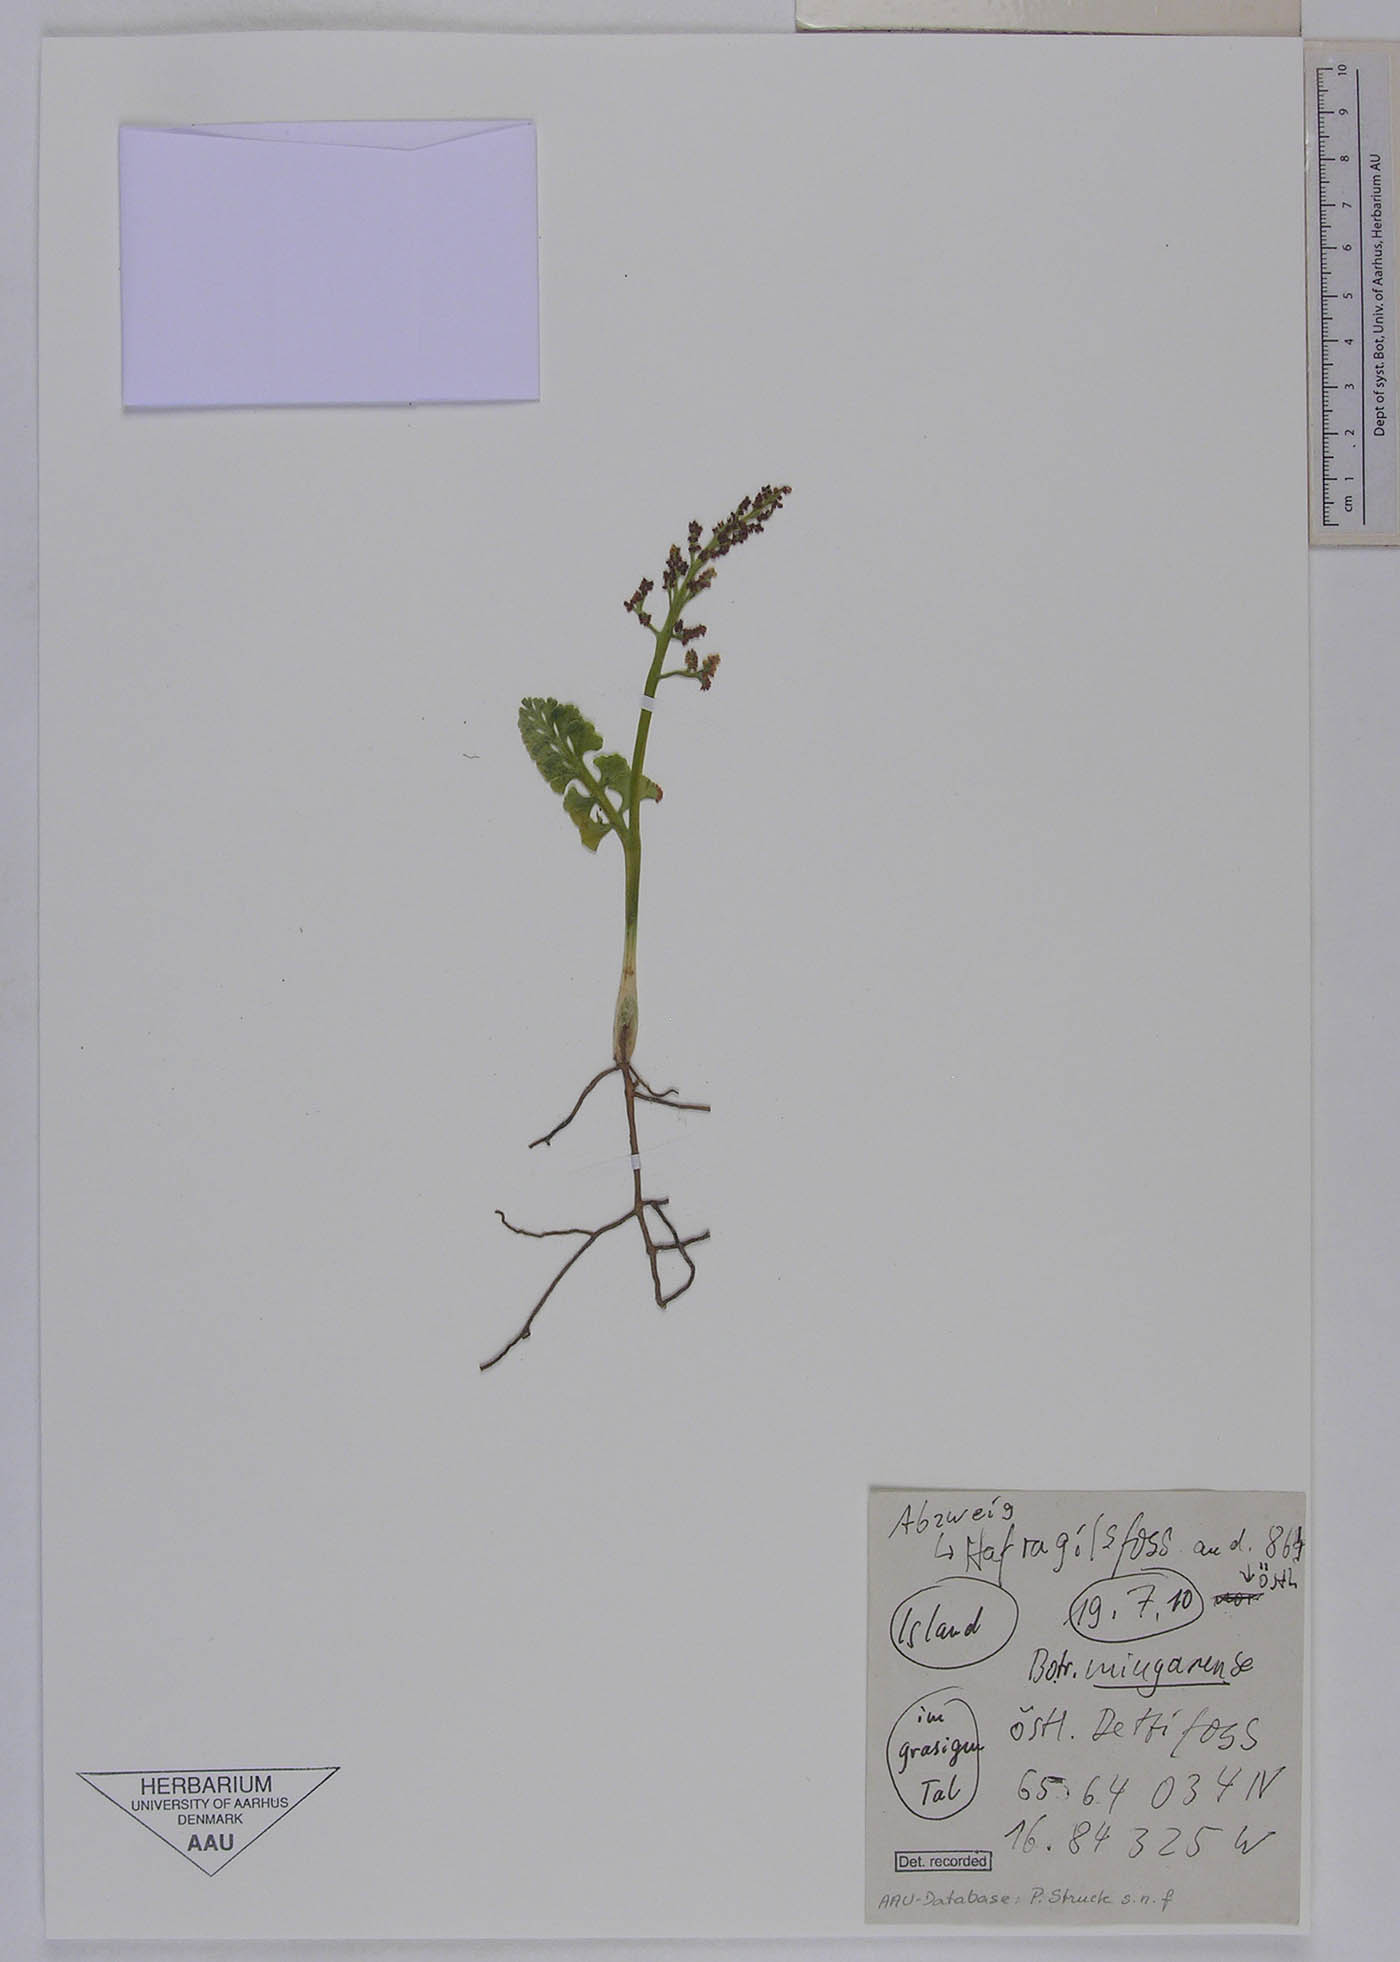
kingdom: Plantae
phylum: Tracheophyta
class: Polypodiopsida
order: Ophioglossales
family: Ophioglossaceae
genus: Botrychium
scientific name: Botrychium mingaense
